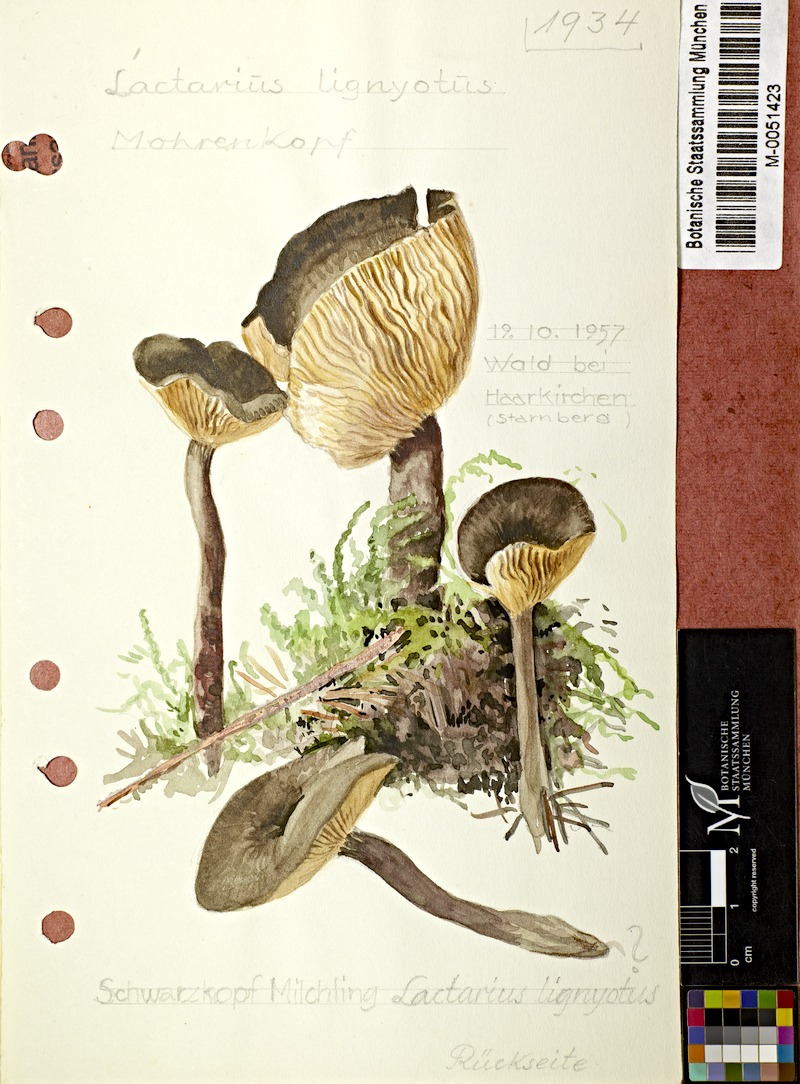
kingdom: Fungi
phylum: Basidiomycota
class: Agaricomycetes
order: Russulales
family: Russulaceae
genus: Lactarius
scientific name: Lactarius lignyotus
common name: Velvet milkcap
